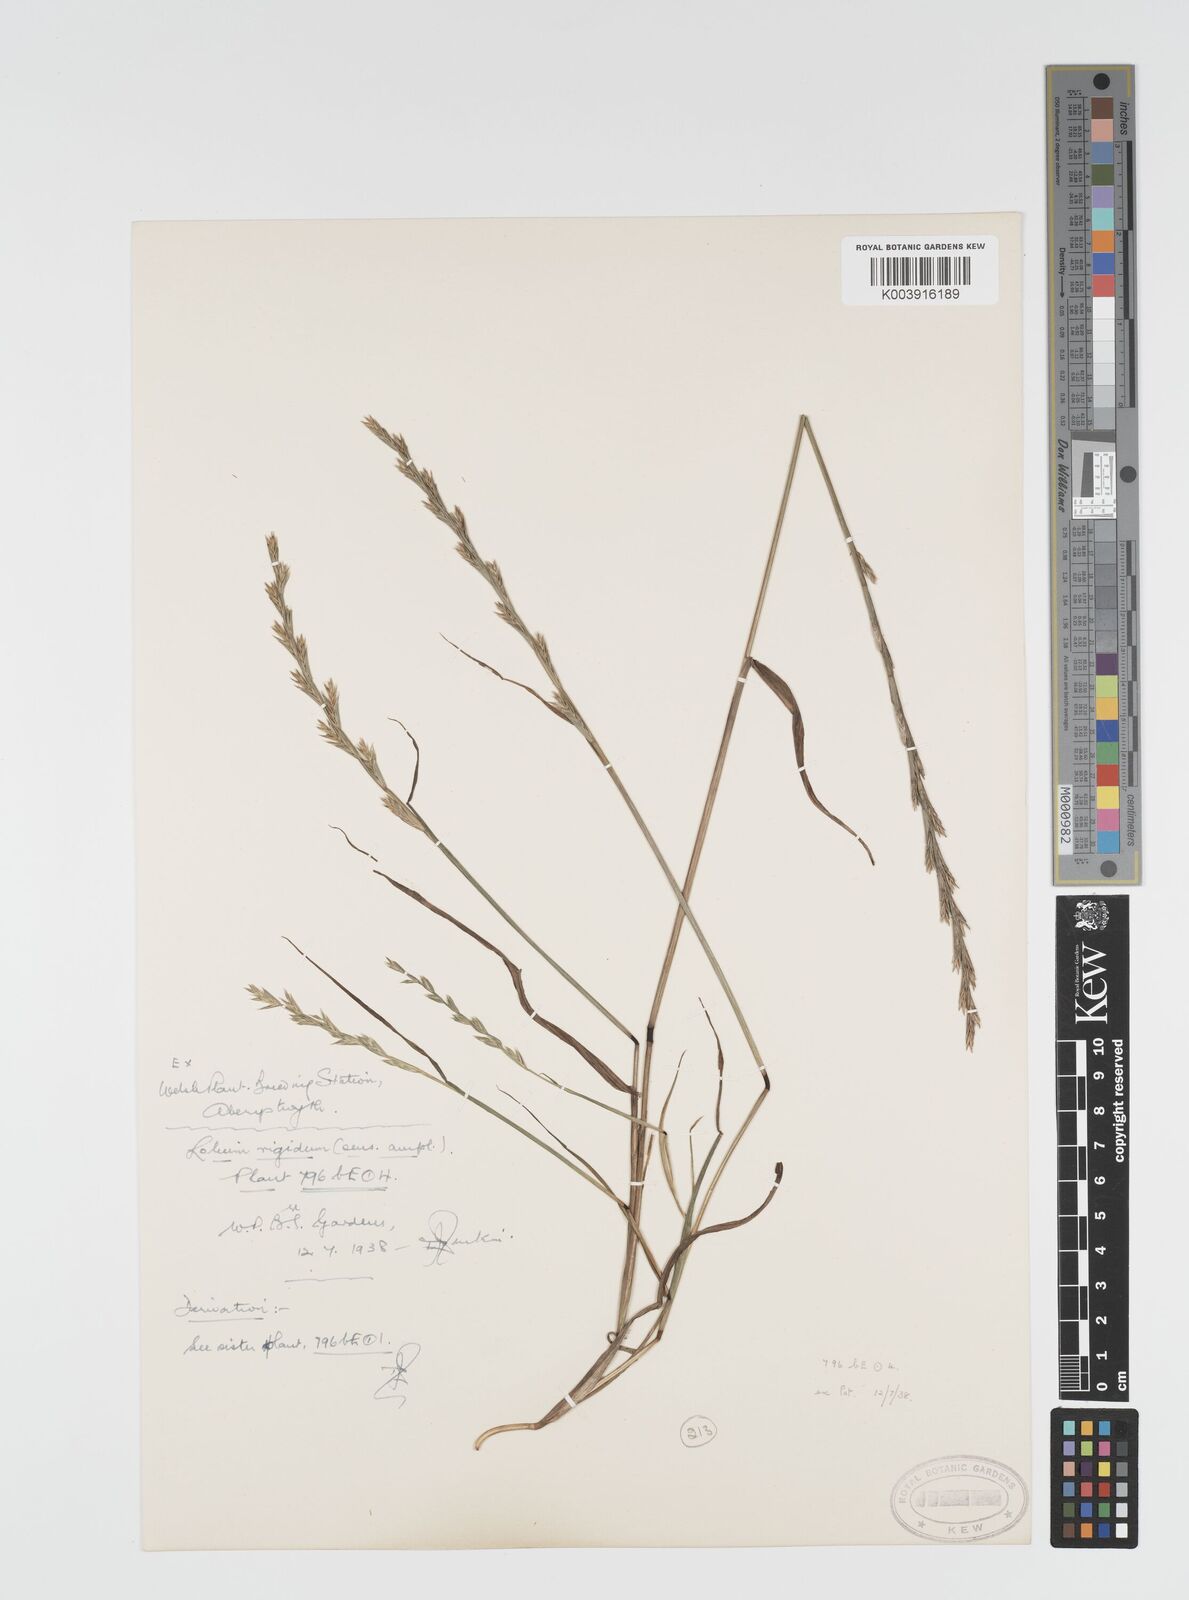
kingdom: Plantae
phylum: Tracheophyta
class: Liliopsida
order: Poales
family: Poaceae
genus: Lolium
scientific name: Lolium rigidum
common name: Wimmera ryegrass
